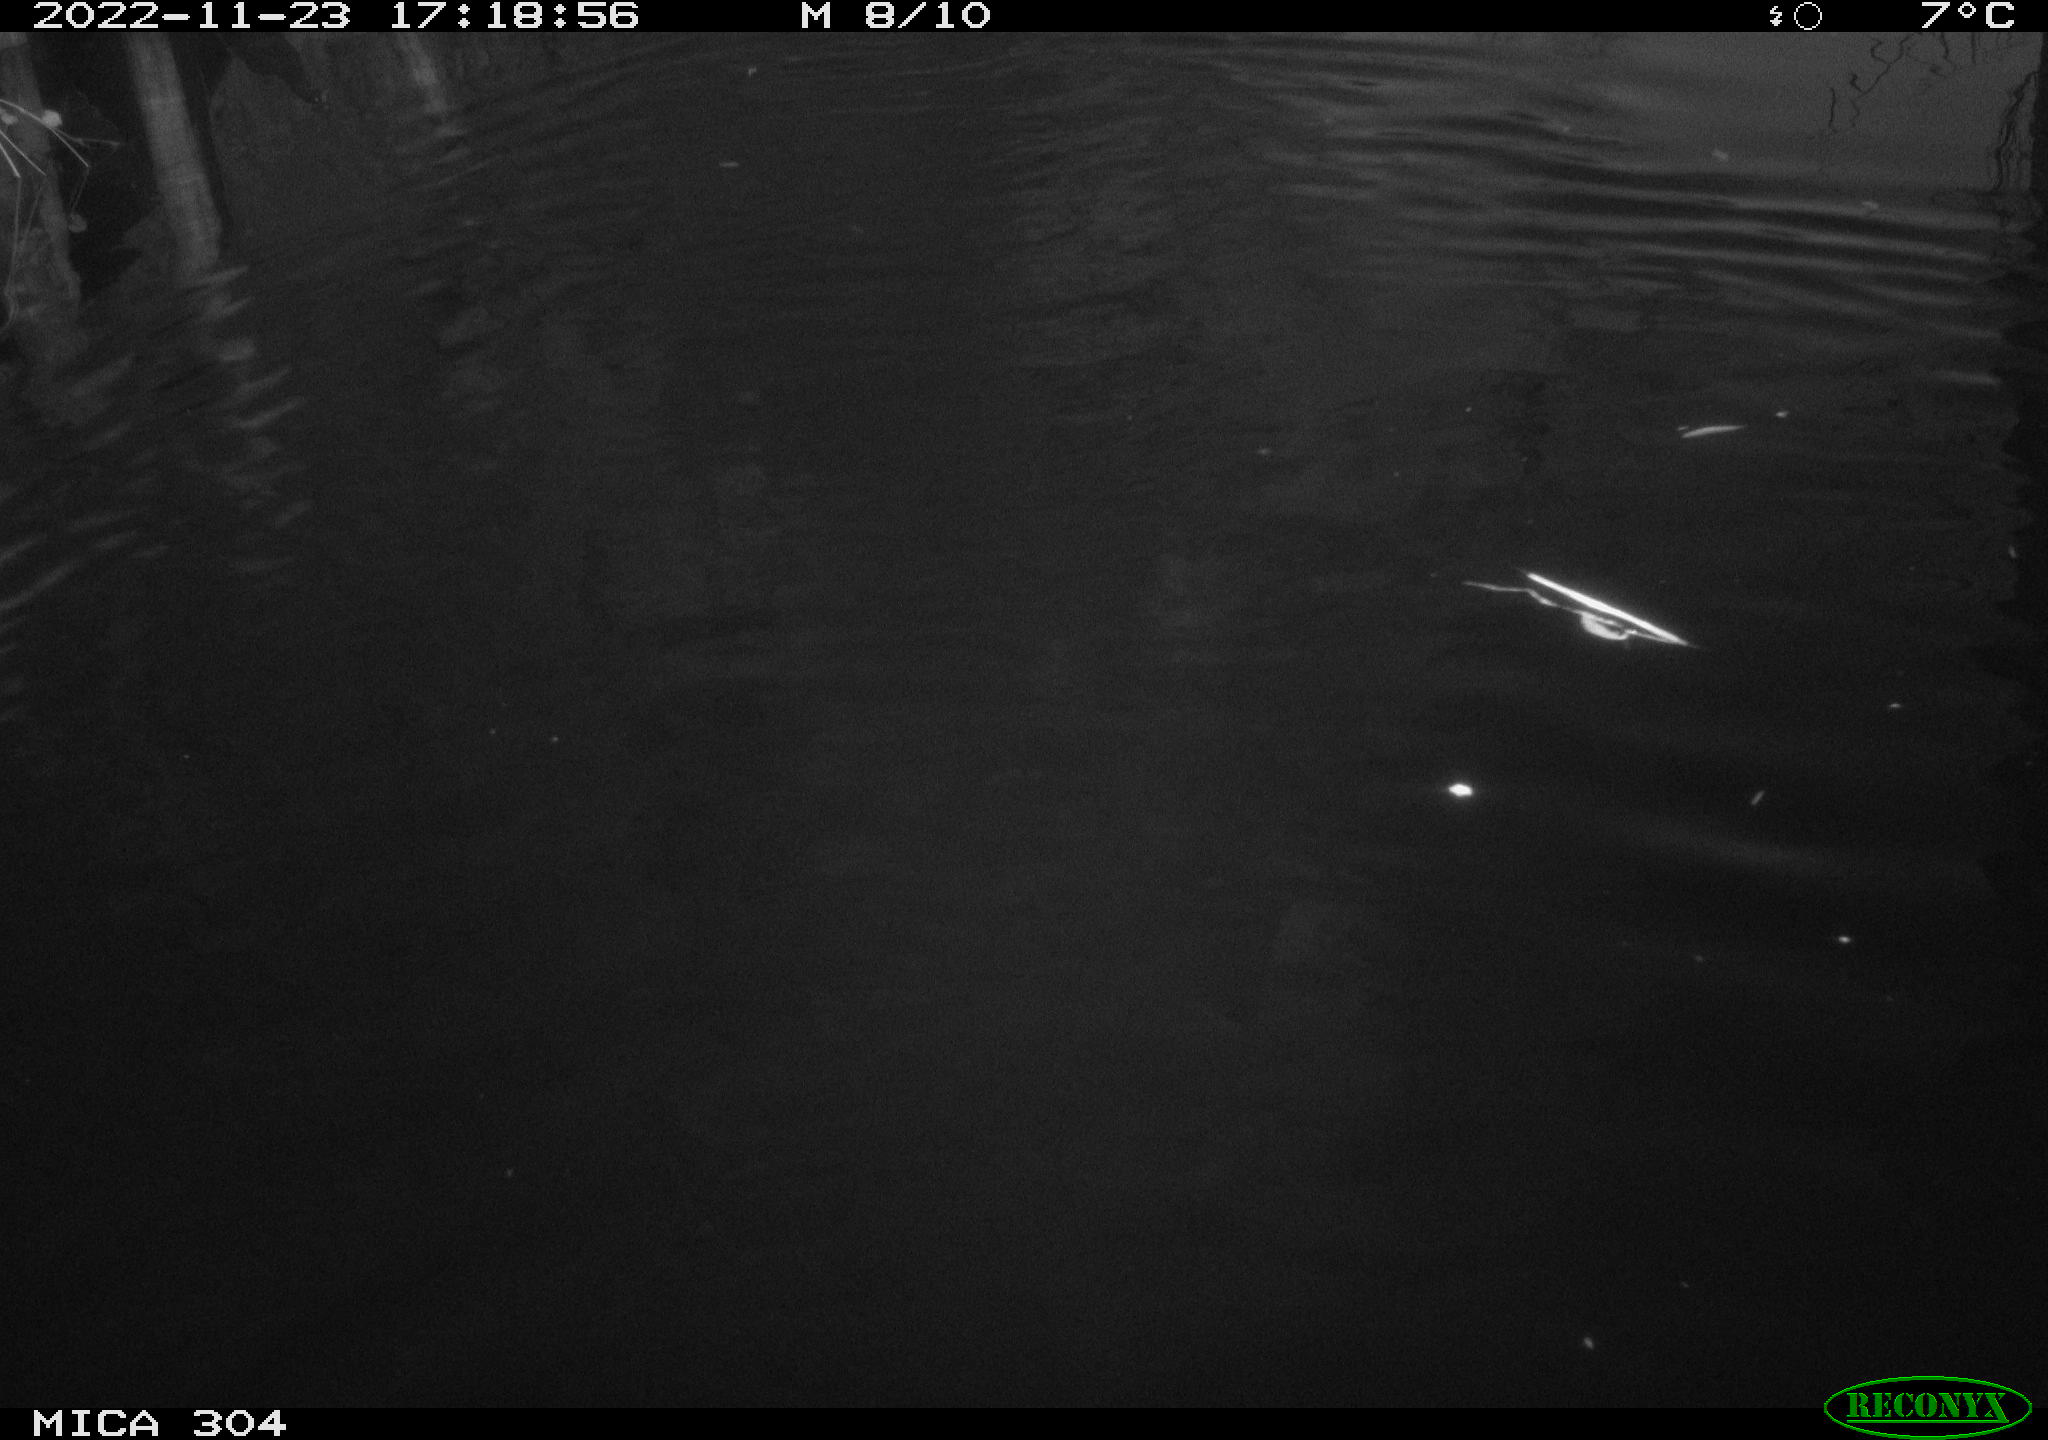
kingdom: Animalia
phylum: Chordata
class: Mammalia
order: Rodentia
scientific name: Rodentia
